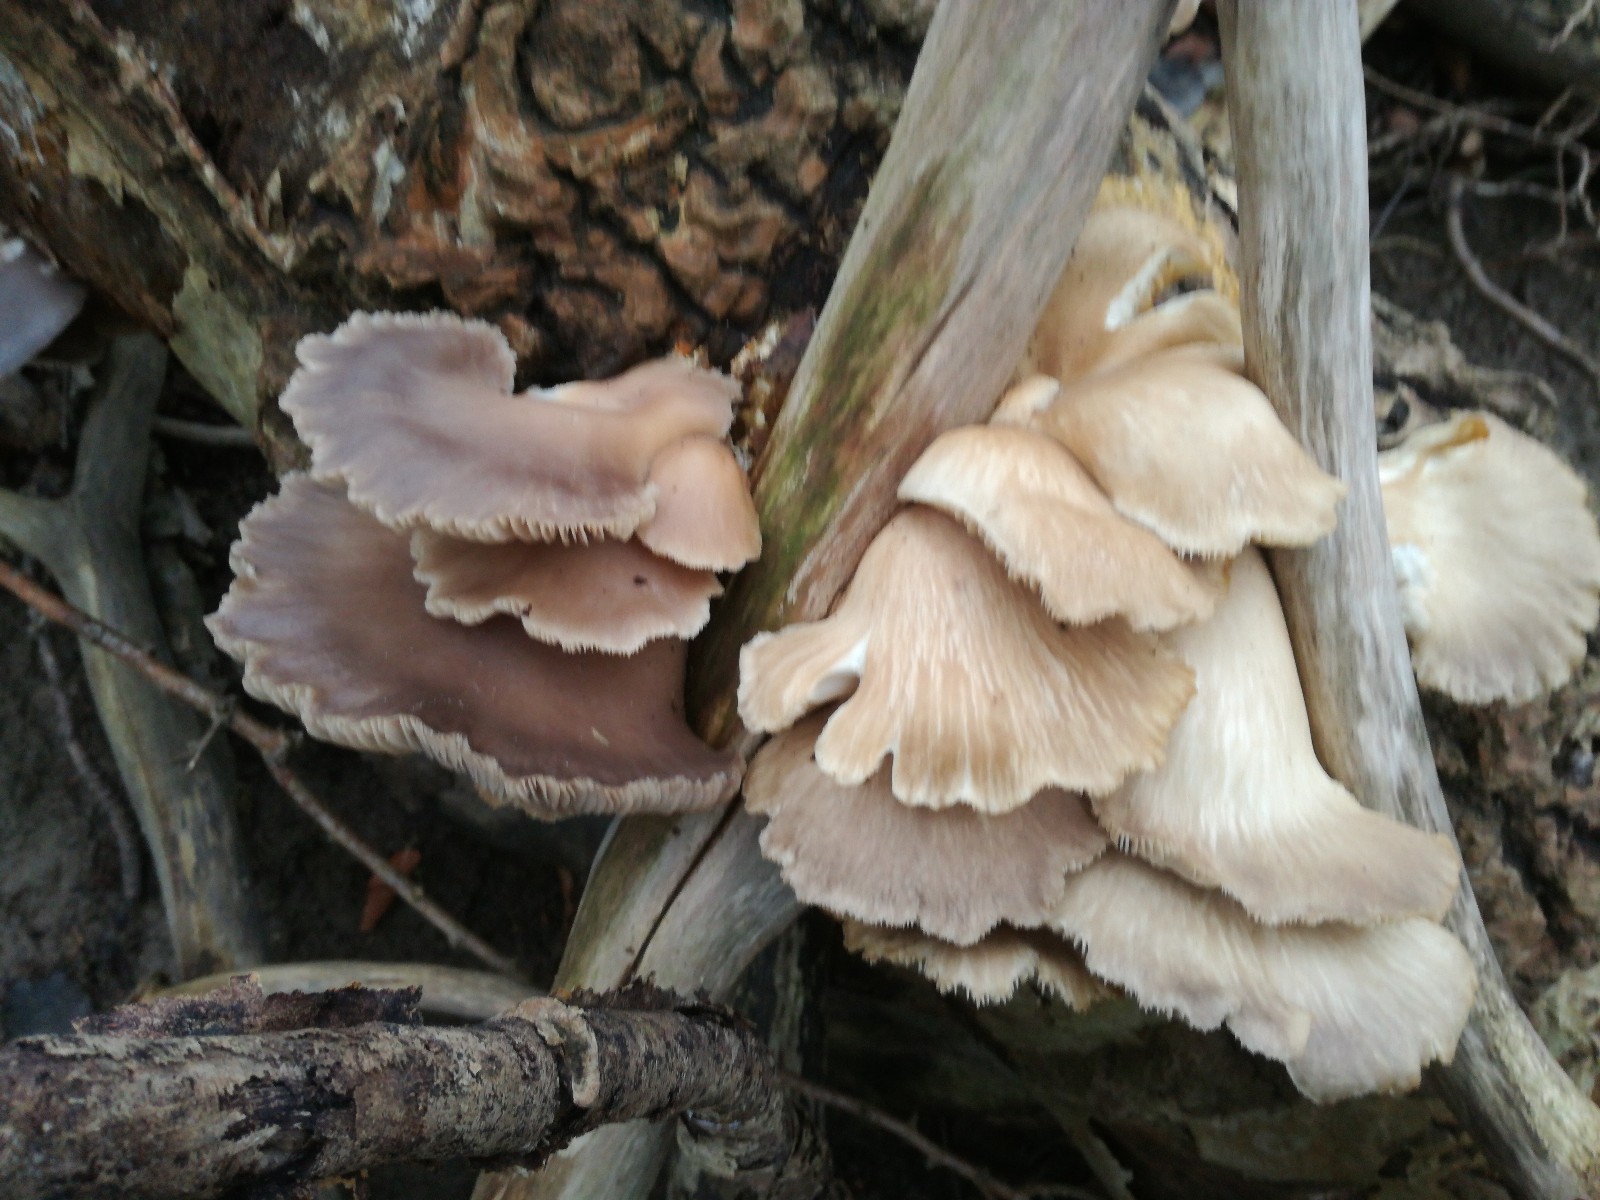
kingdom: Fungi
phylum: Basidiomycota
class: Agaricomycetes
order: Agaricales
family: Pleurotaceae
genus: Pleurotus
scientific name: Pleurotus ostreatus
